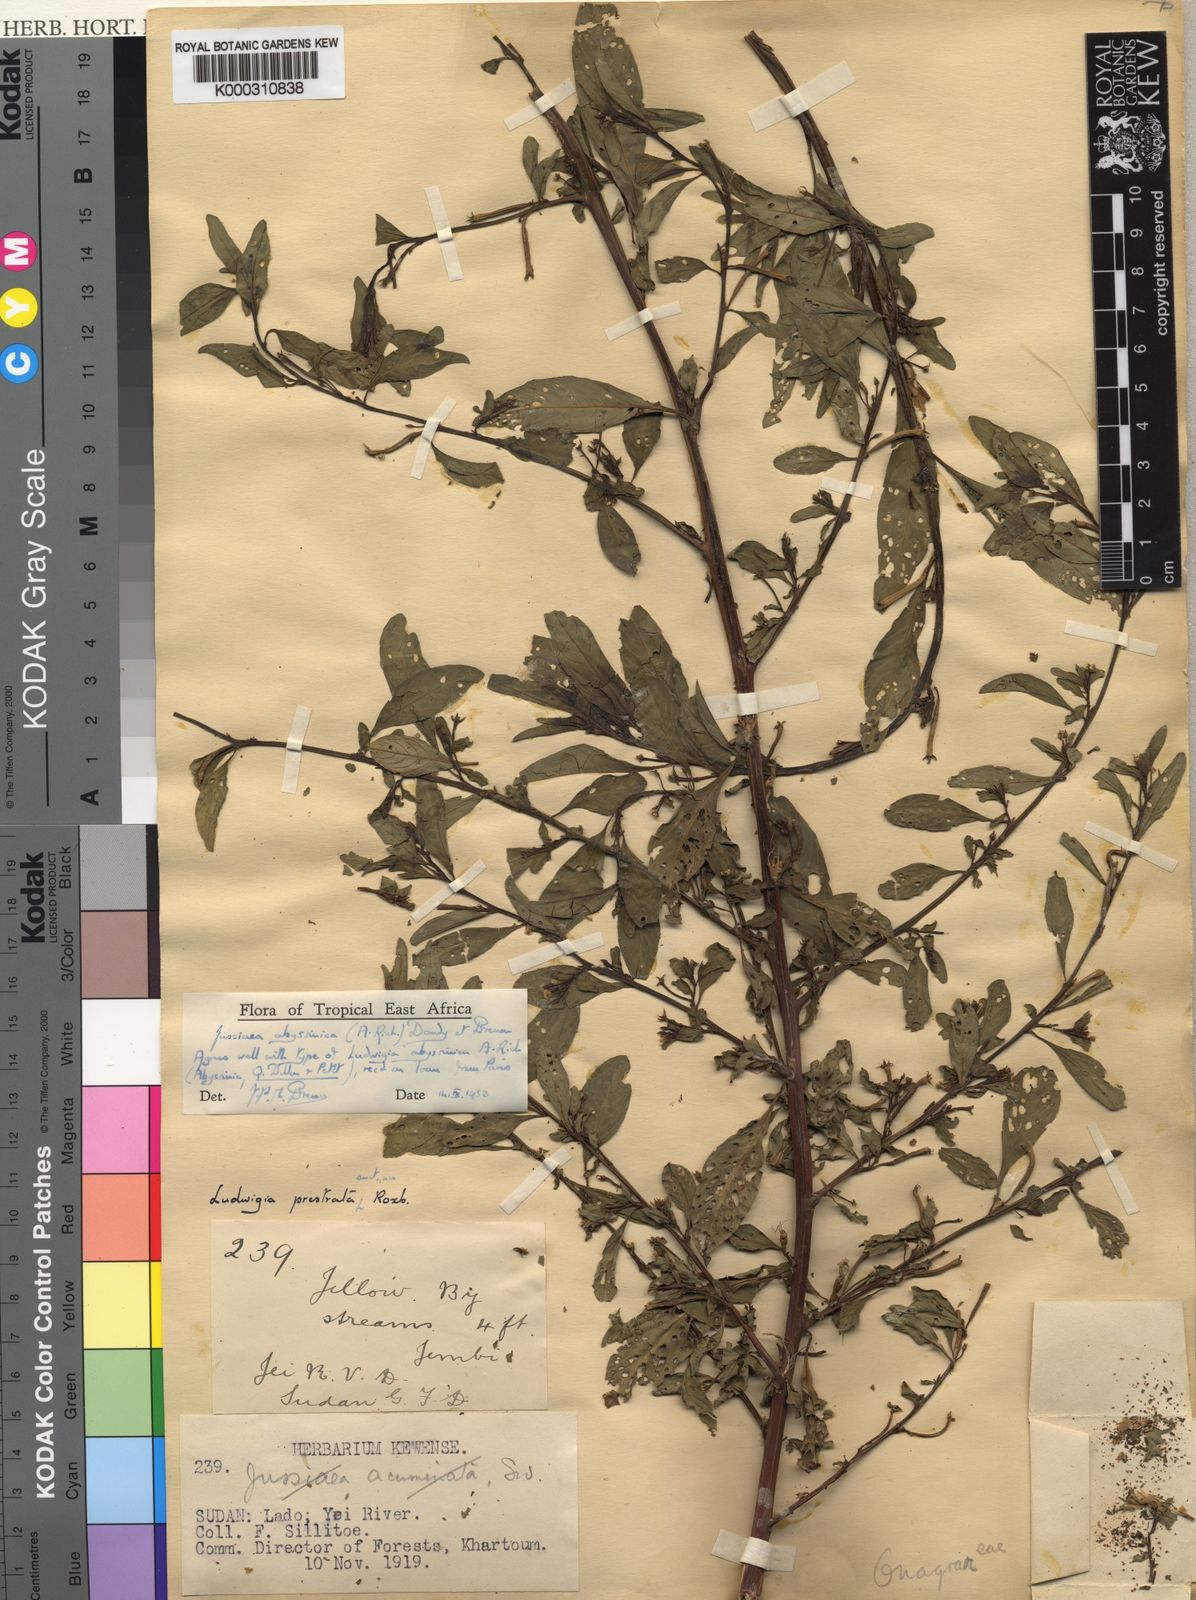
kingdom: Plantae
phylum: Tracheophyta
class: Magnoliopsida
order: Myrtales
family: Onagraceae
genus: Ludwigia
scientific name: Ludwigia abyssinica
